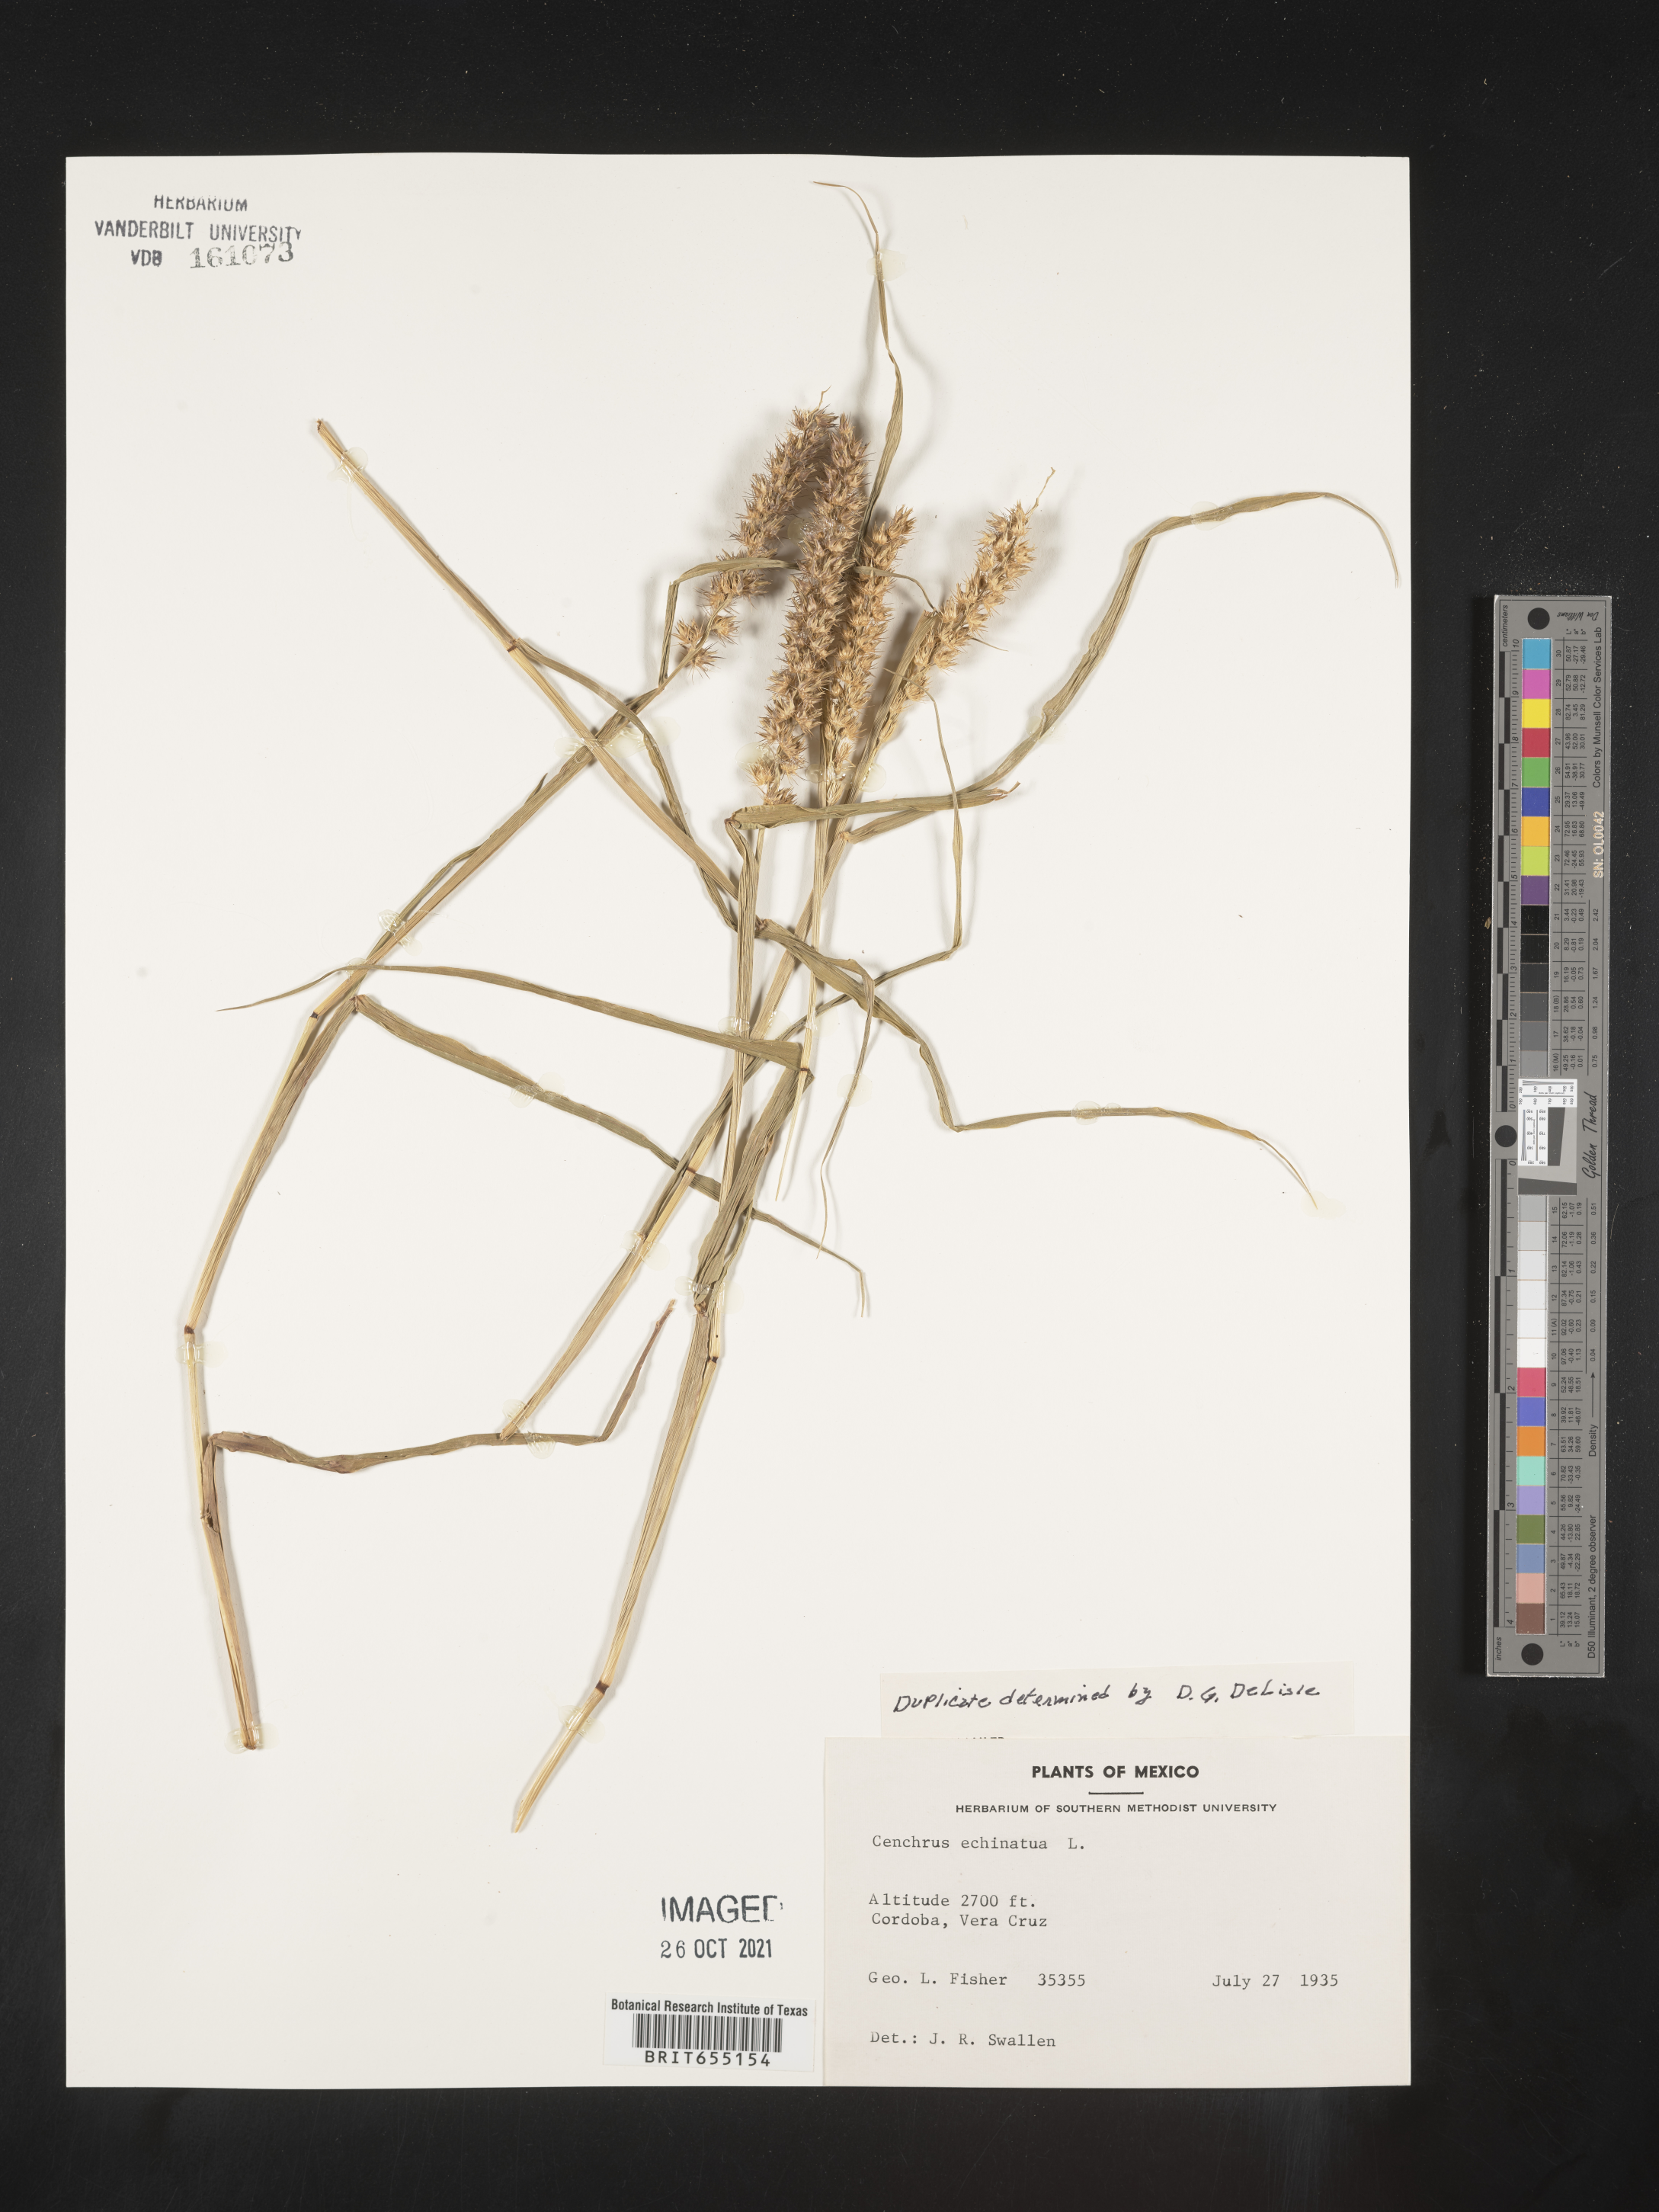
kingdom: Plantae
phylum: Tracheophyta
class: Liliopsida
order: Poales
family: Poaceae
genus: Cenchrus
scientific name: Cenchrus
